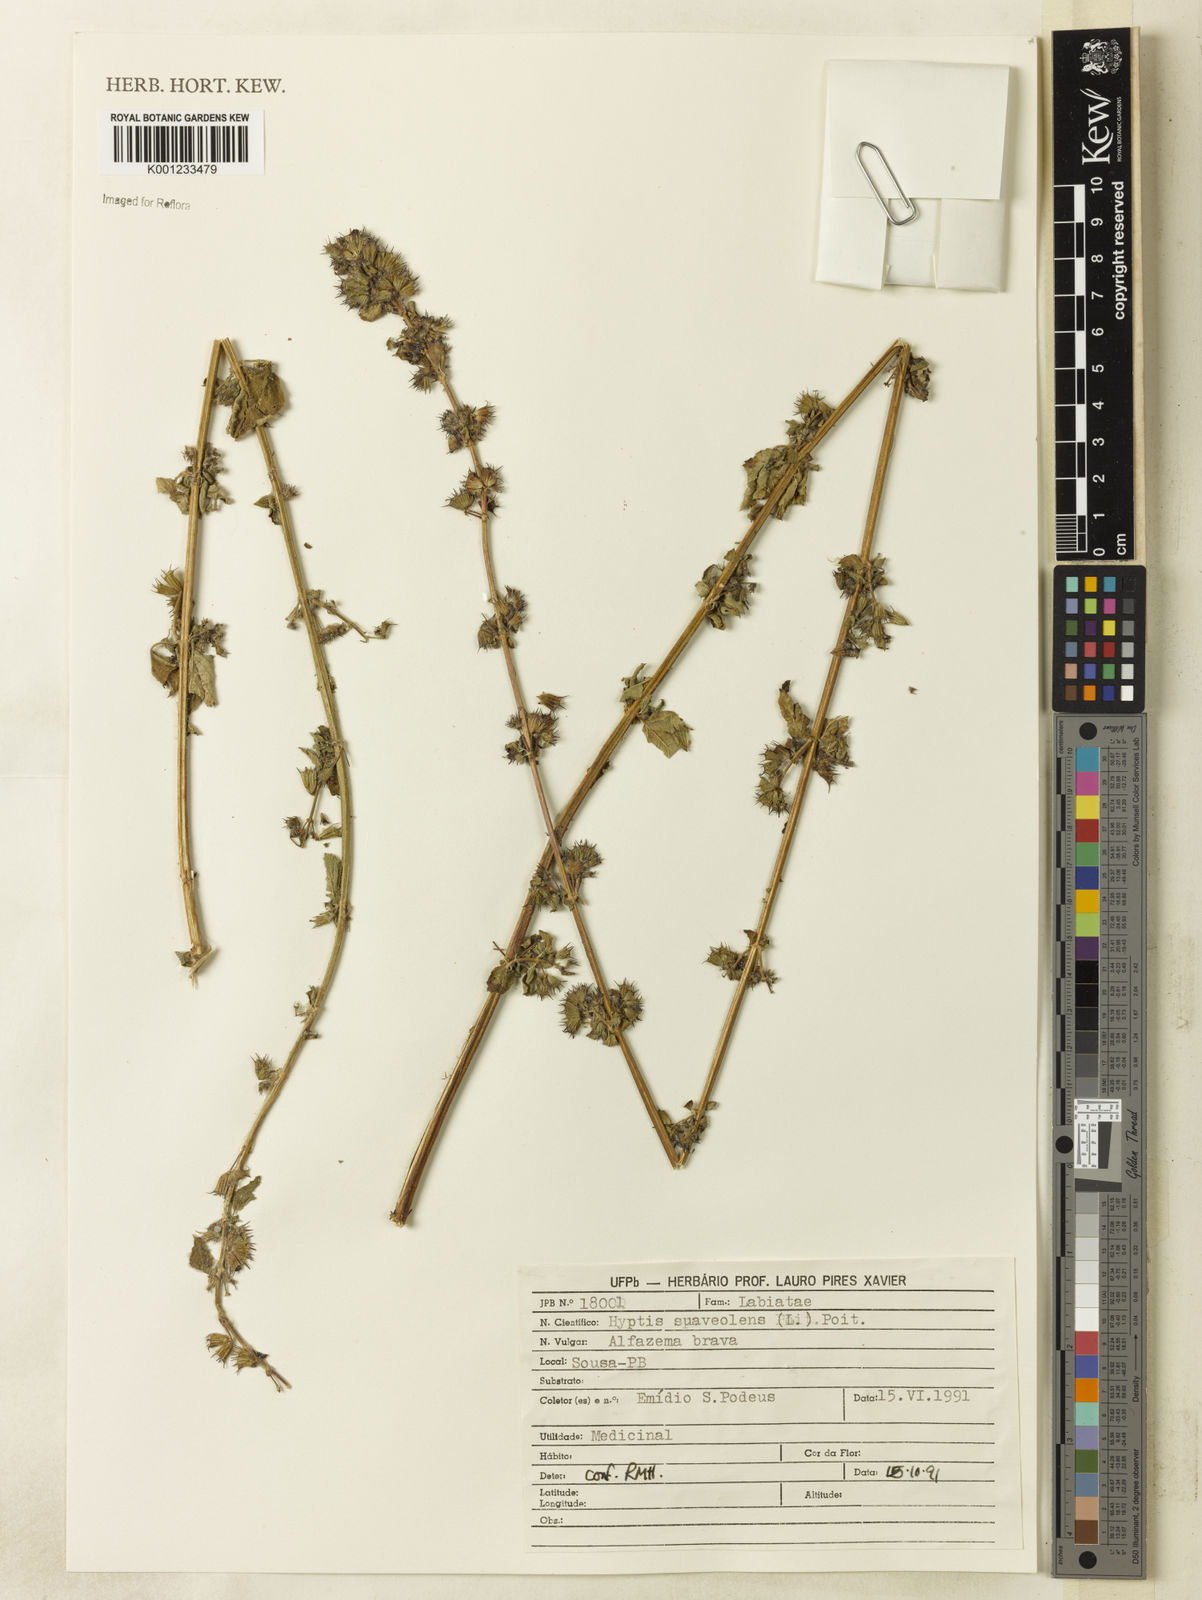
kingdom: Plantae
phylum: Tracheophyta
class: Magnoliopsida
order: Lamiales
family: Lamiaceae
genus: Mesosphaerum
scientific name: Mesosphaerum suaveolens
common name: Pignut
